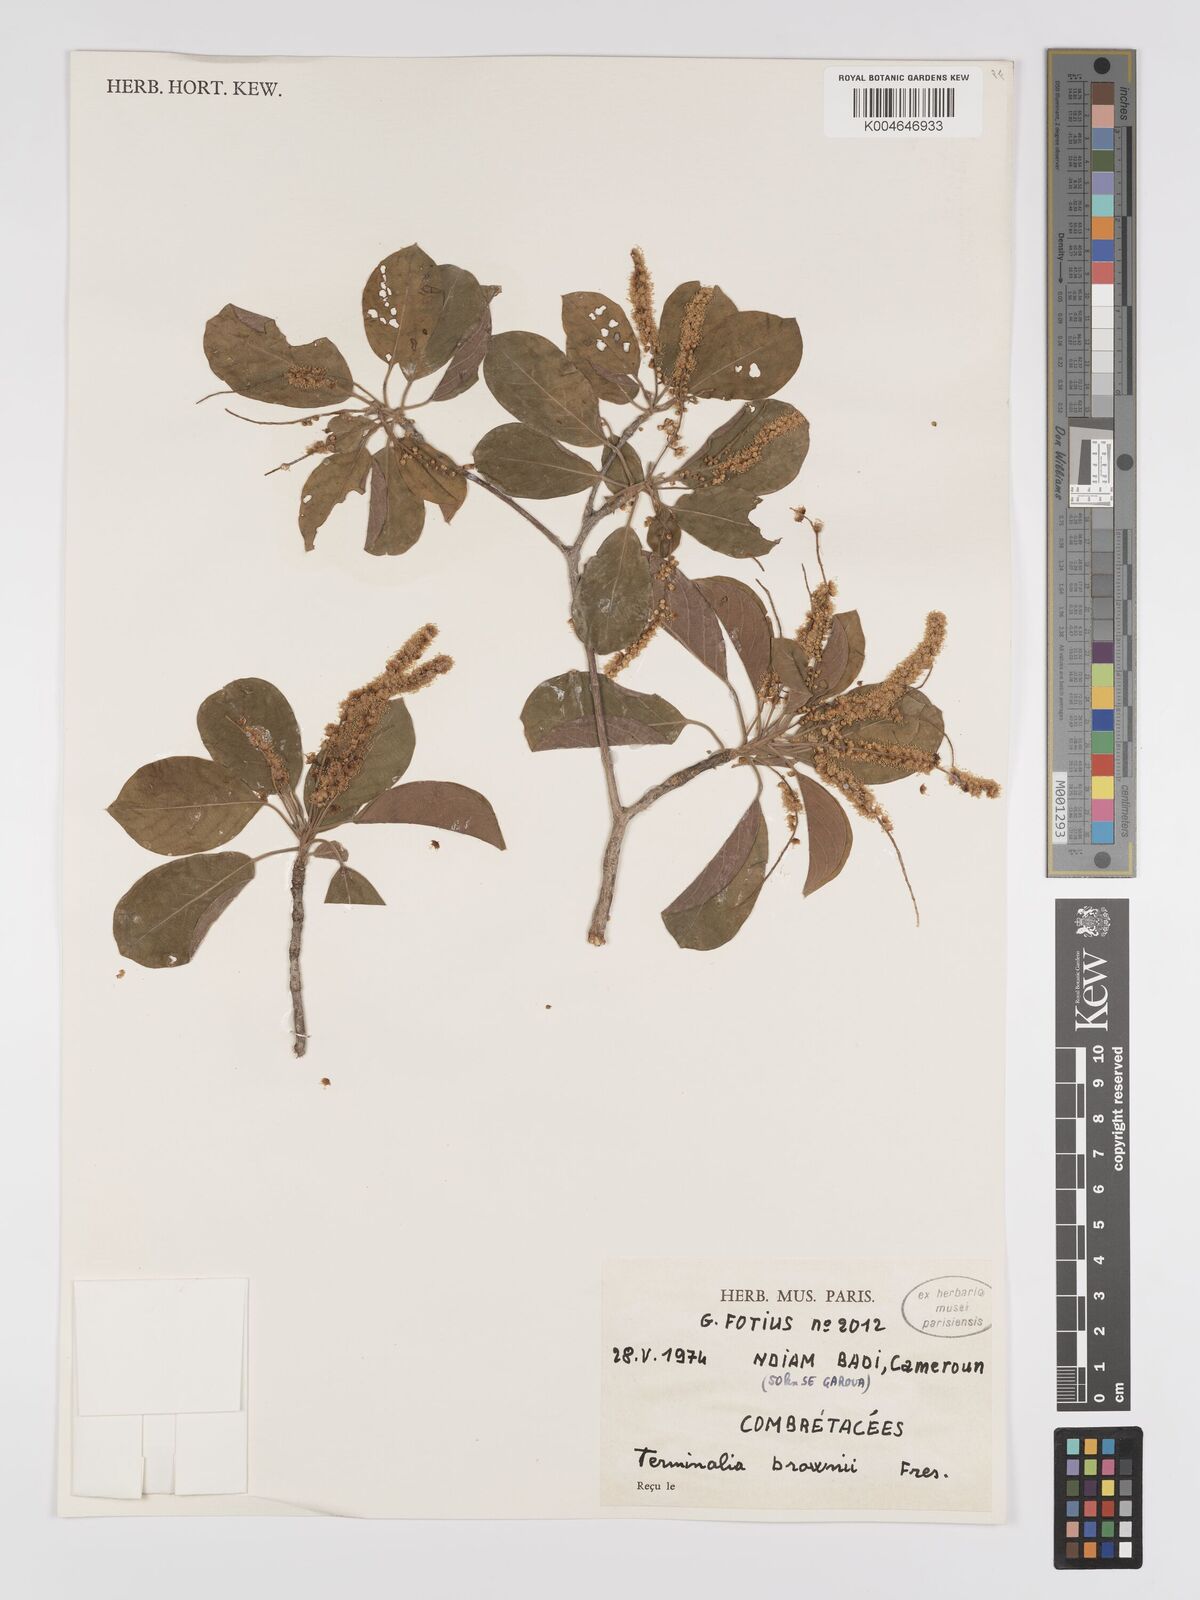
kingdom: Plantae
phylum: Tracheophyta
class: Magnoliopsida
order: Myrtales
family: Combretaceae
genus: Terminalia
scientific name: Terminalia brownii
